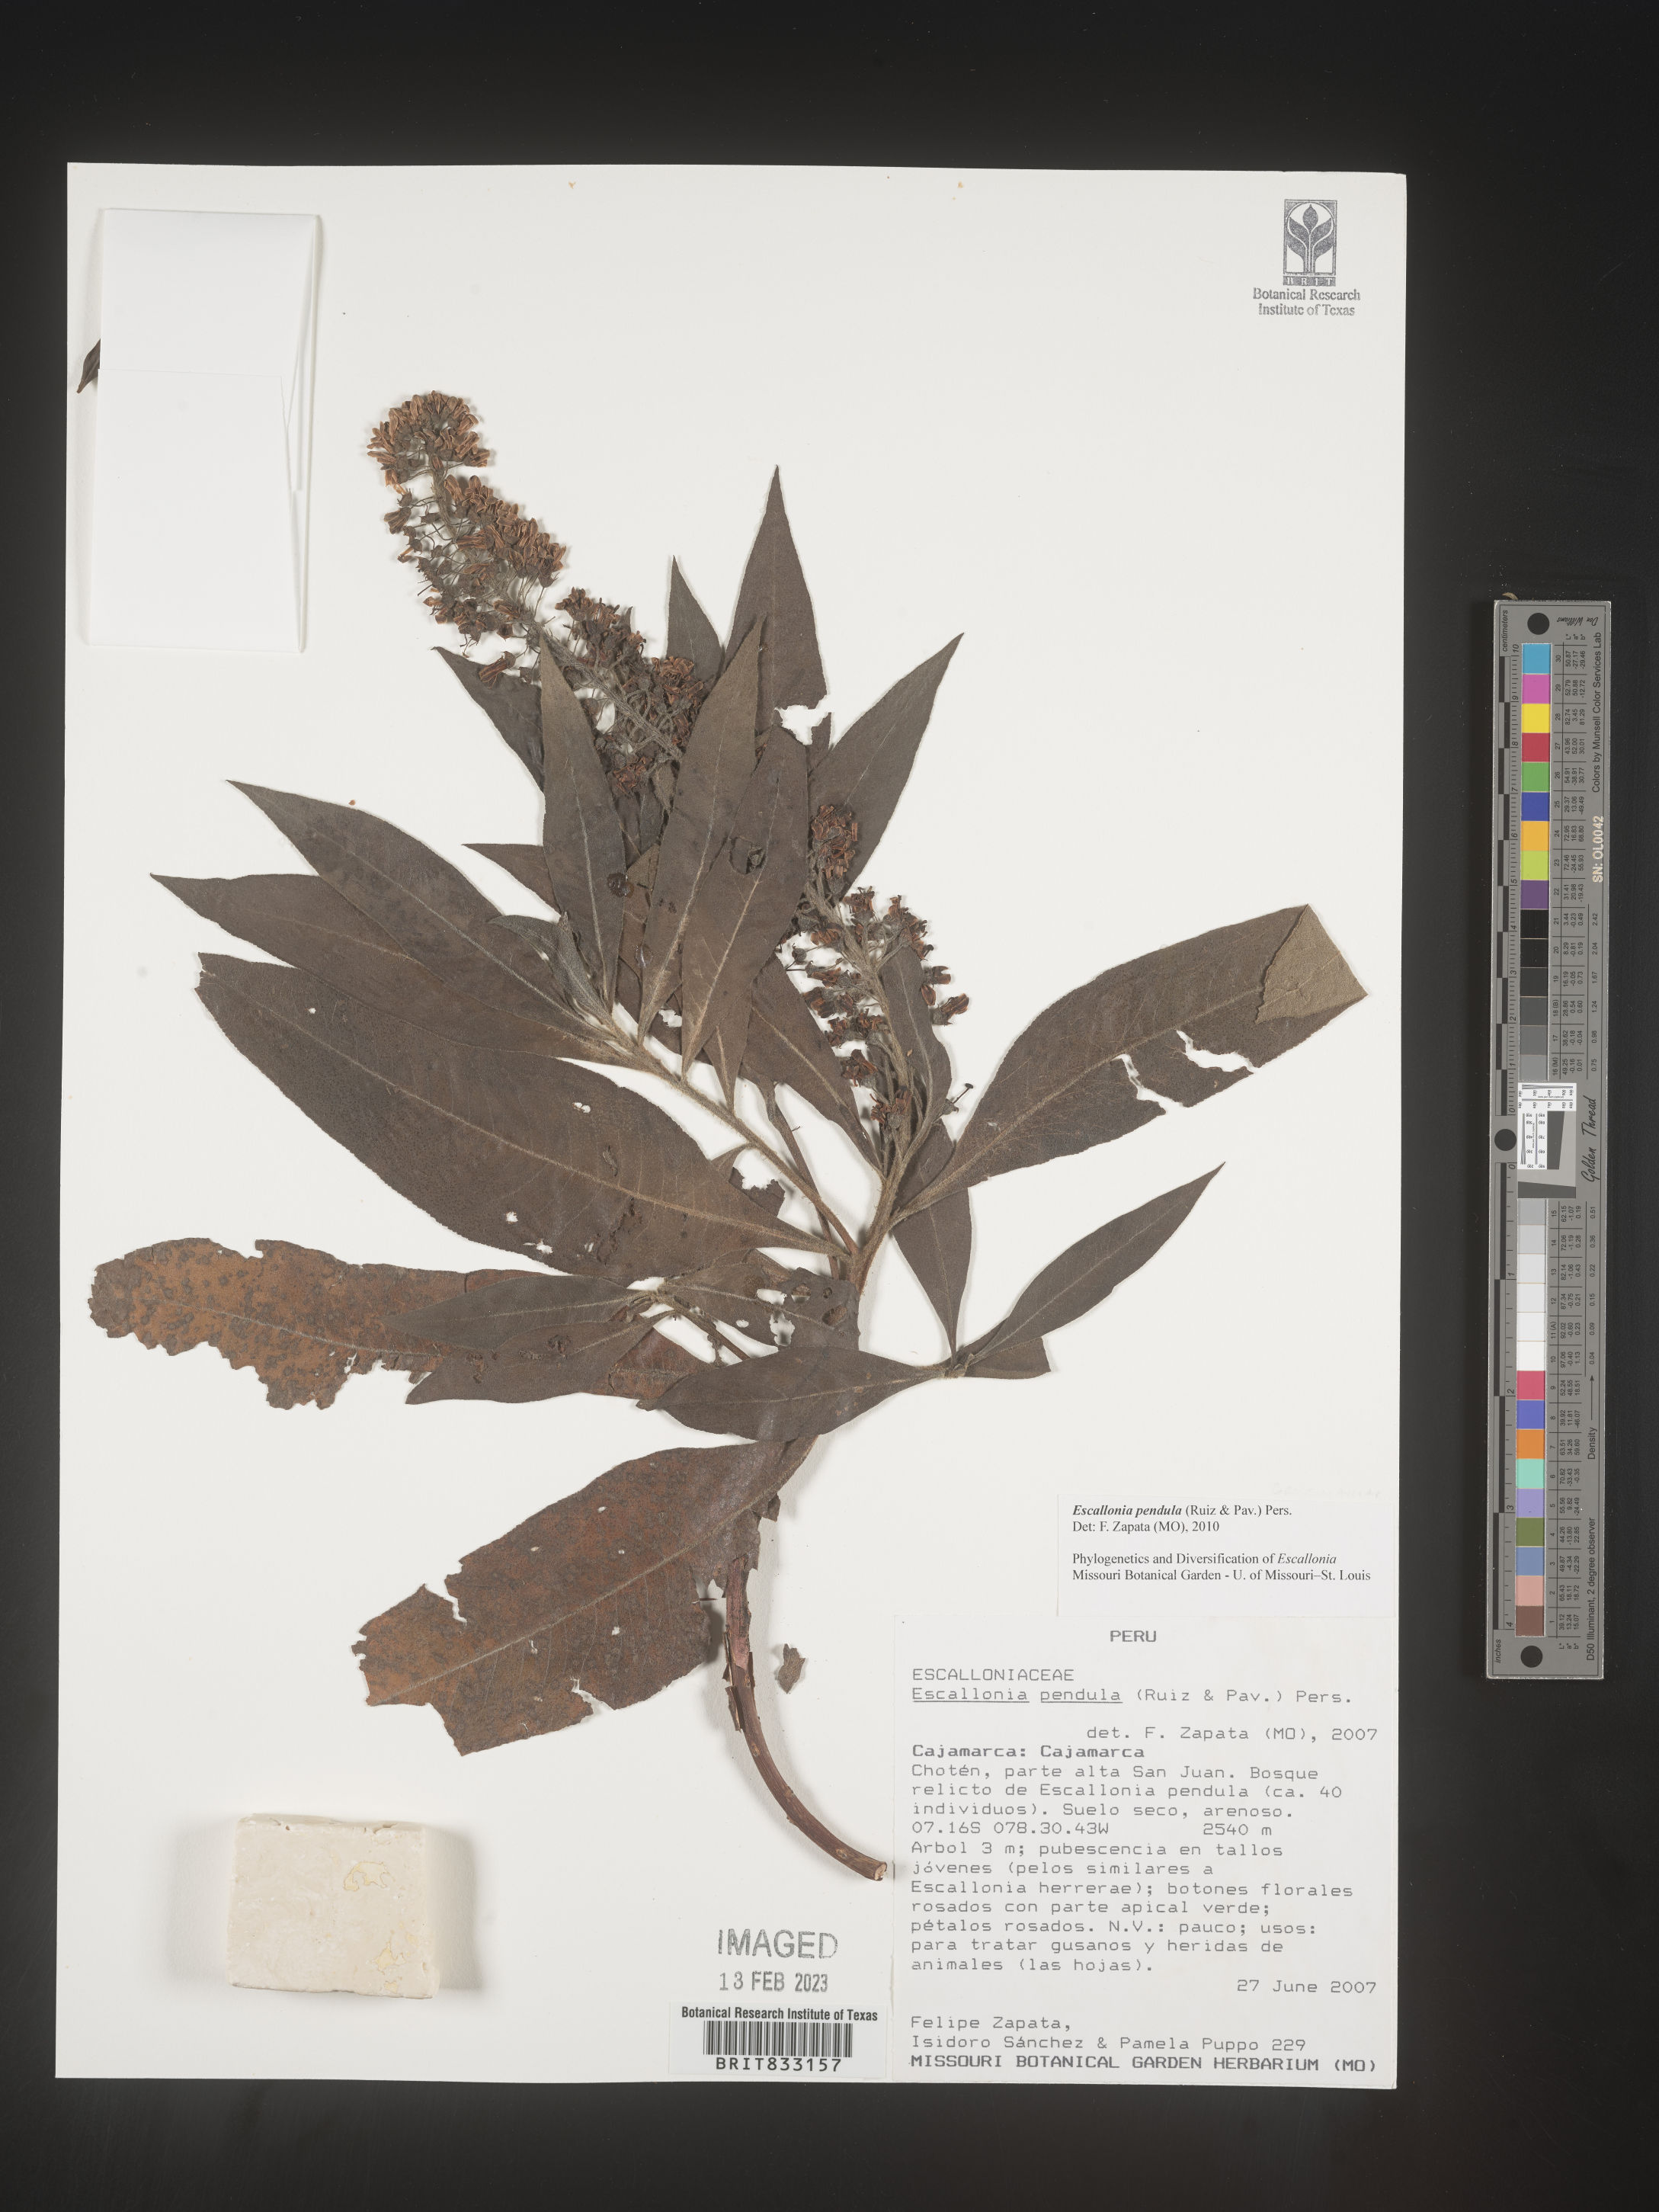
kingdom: Plantae
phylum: Tracheophyta
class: Magnoliopsida
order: Escalloniales
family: Escalloniaceae
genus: Escallonia
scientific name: Escallonia pendula
